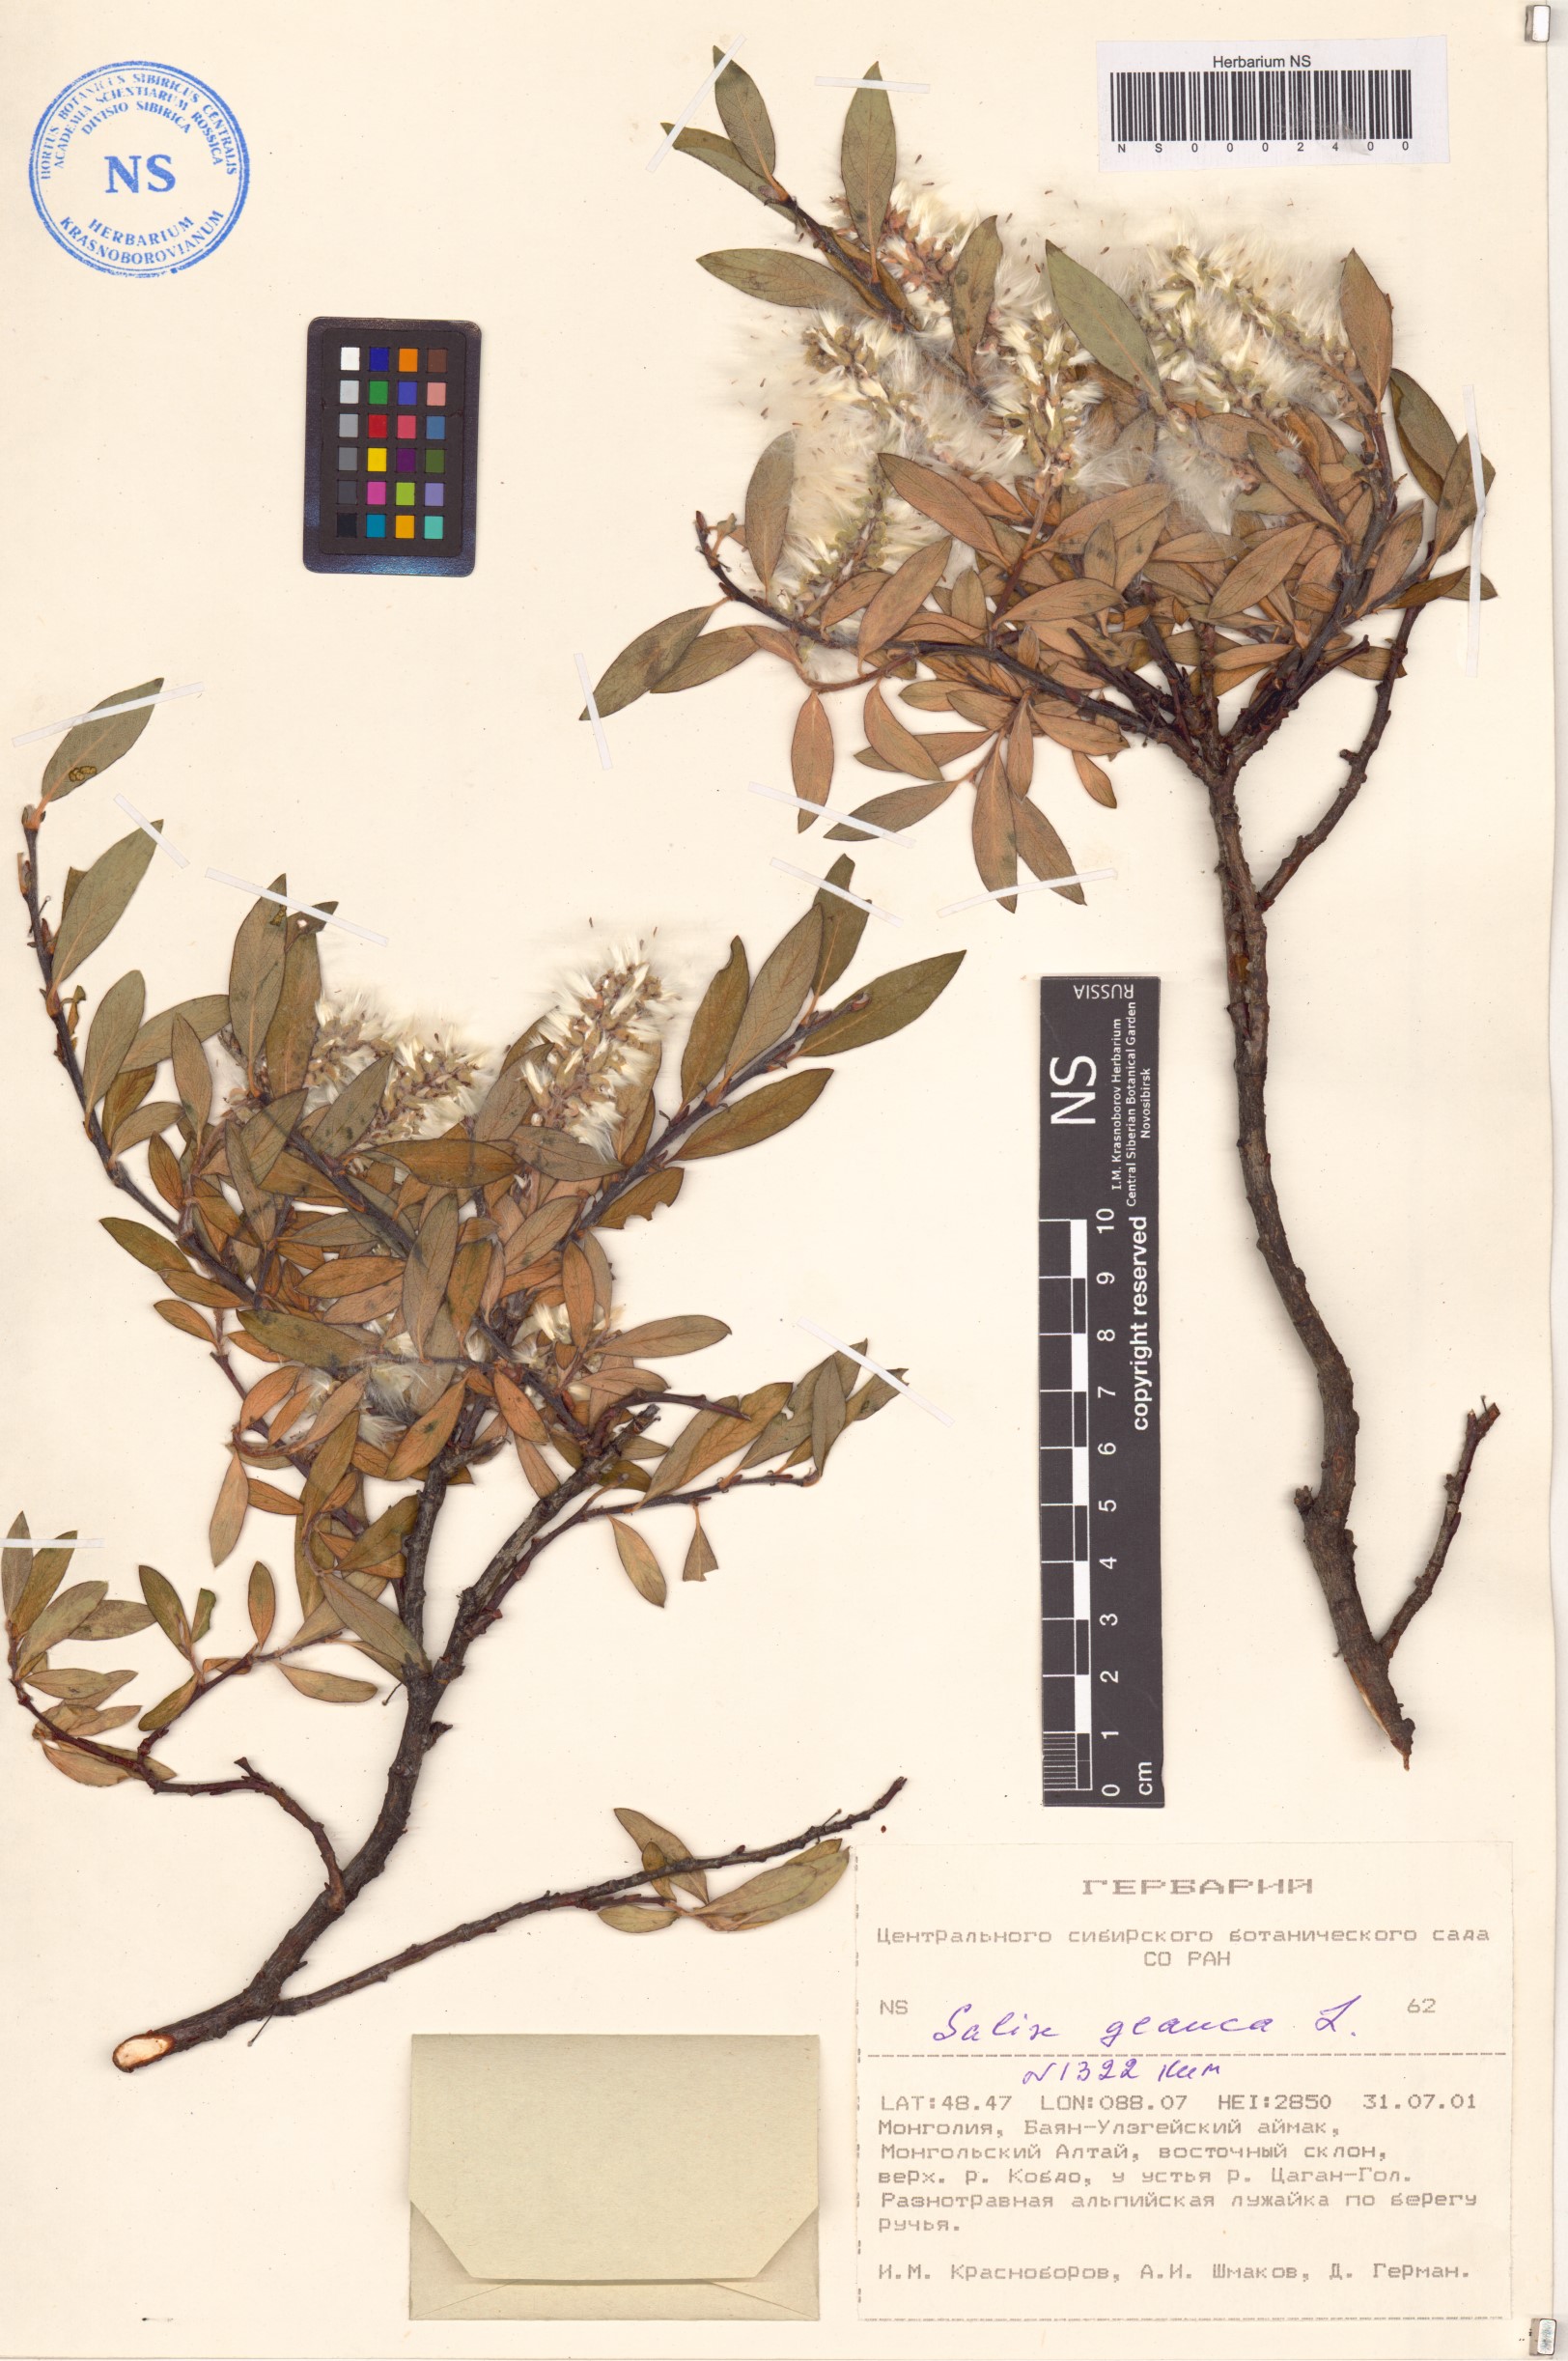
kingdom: Plantae
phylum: Tracheophyta
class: Magnoliopsida
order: Malpighiales
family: Salicaceae
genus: Salix
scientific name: Salix glauca
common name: Glaucous willow
